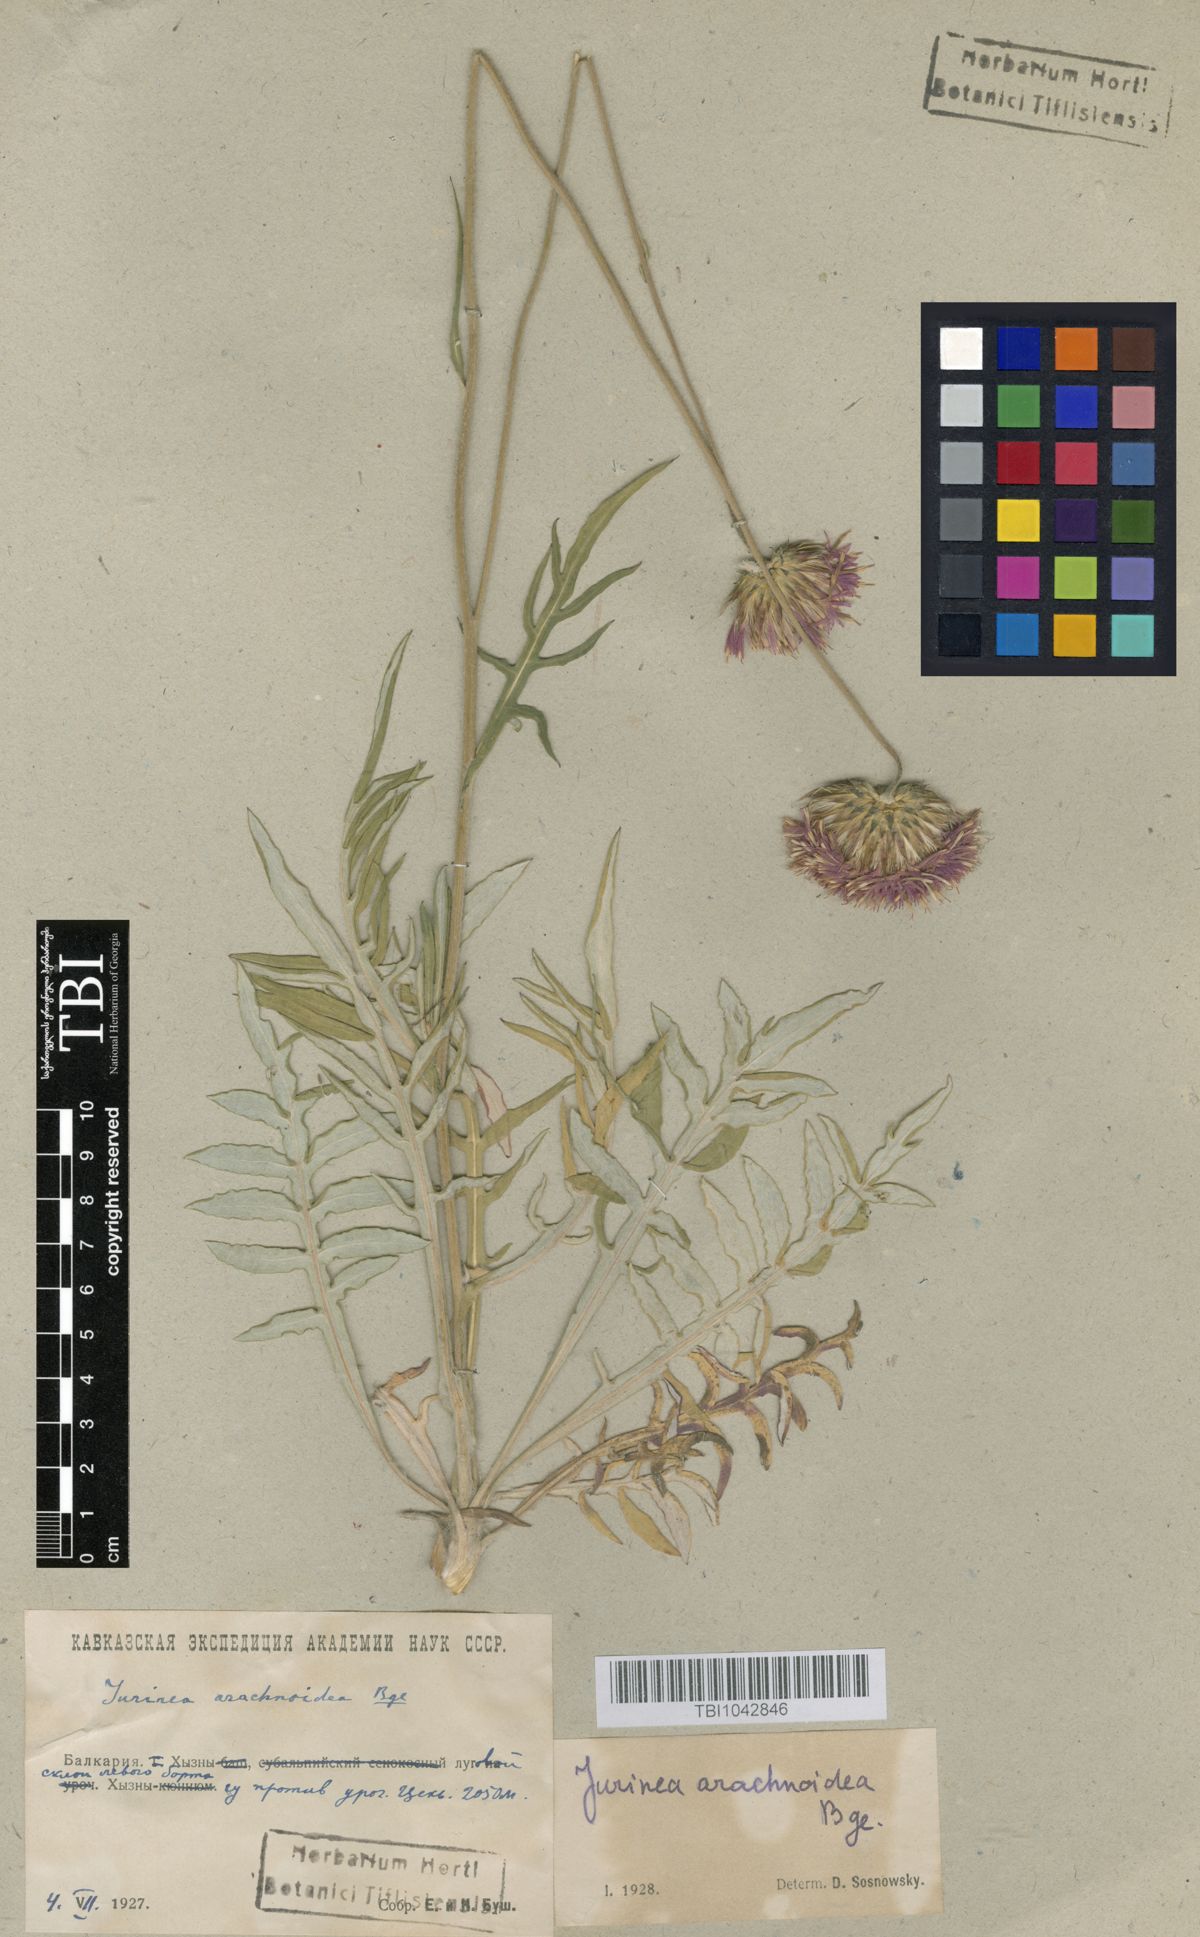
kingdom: Plantae
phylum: Tracheophyta
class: Magnoliopsida
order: Asterales
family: Asteraceae
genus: Jurinea
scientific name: Jurinea blanda
